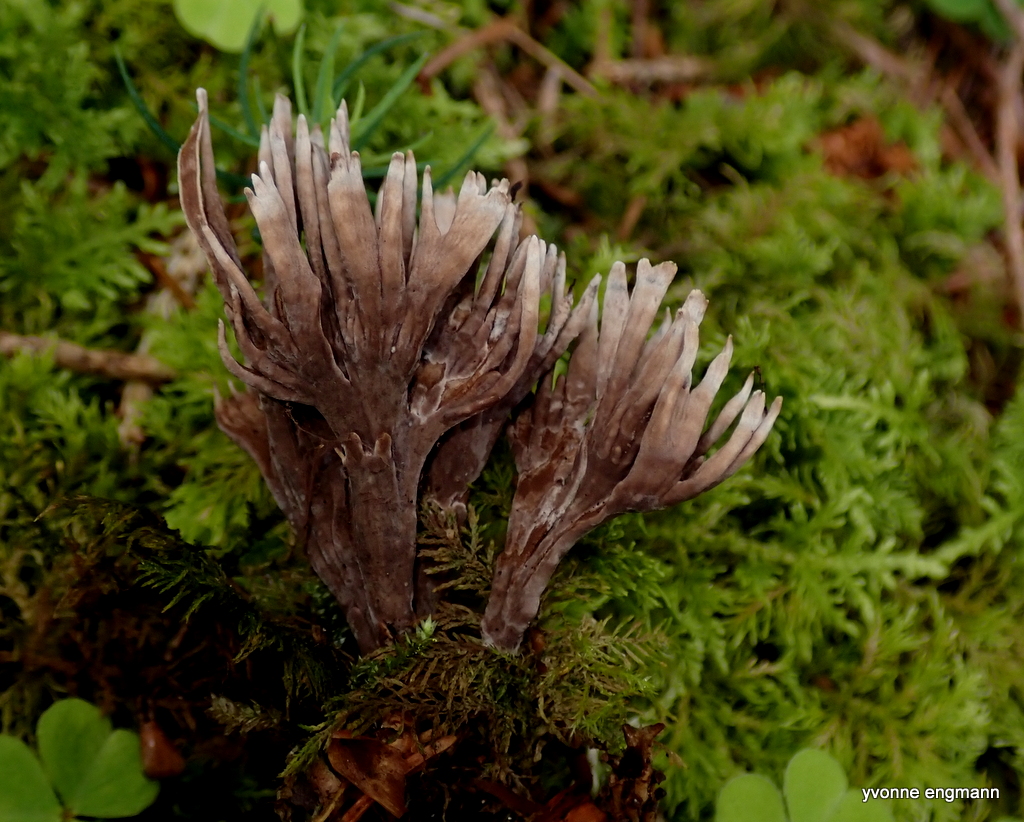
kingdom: Fungi
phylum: Basidiomycota
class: Agaricomycetes
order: Thelephorales
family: Thelephoraceae
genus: Thelephora
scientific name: Thelephora palmata
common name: grenet frynsesvamp
